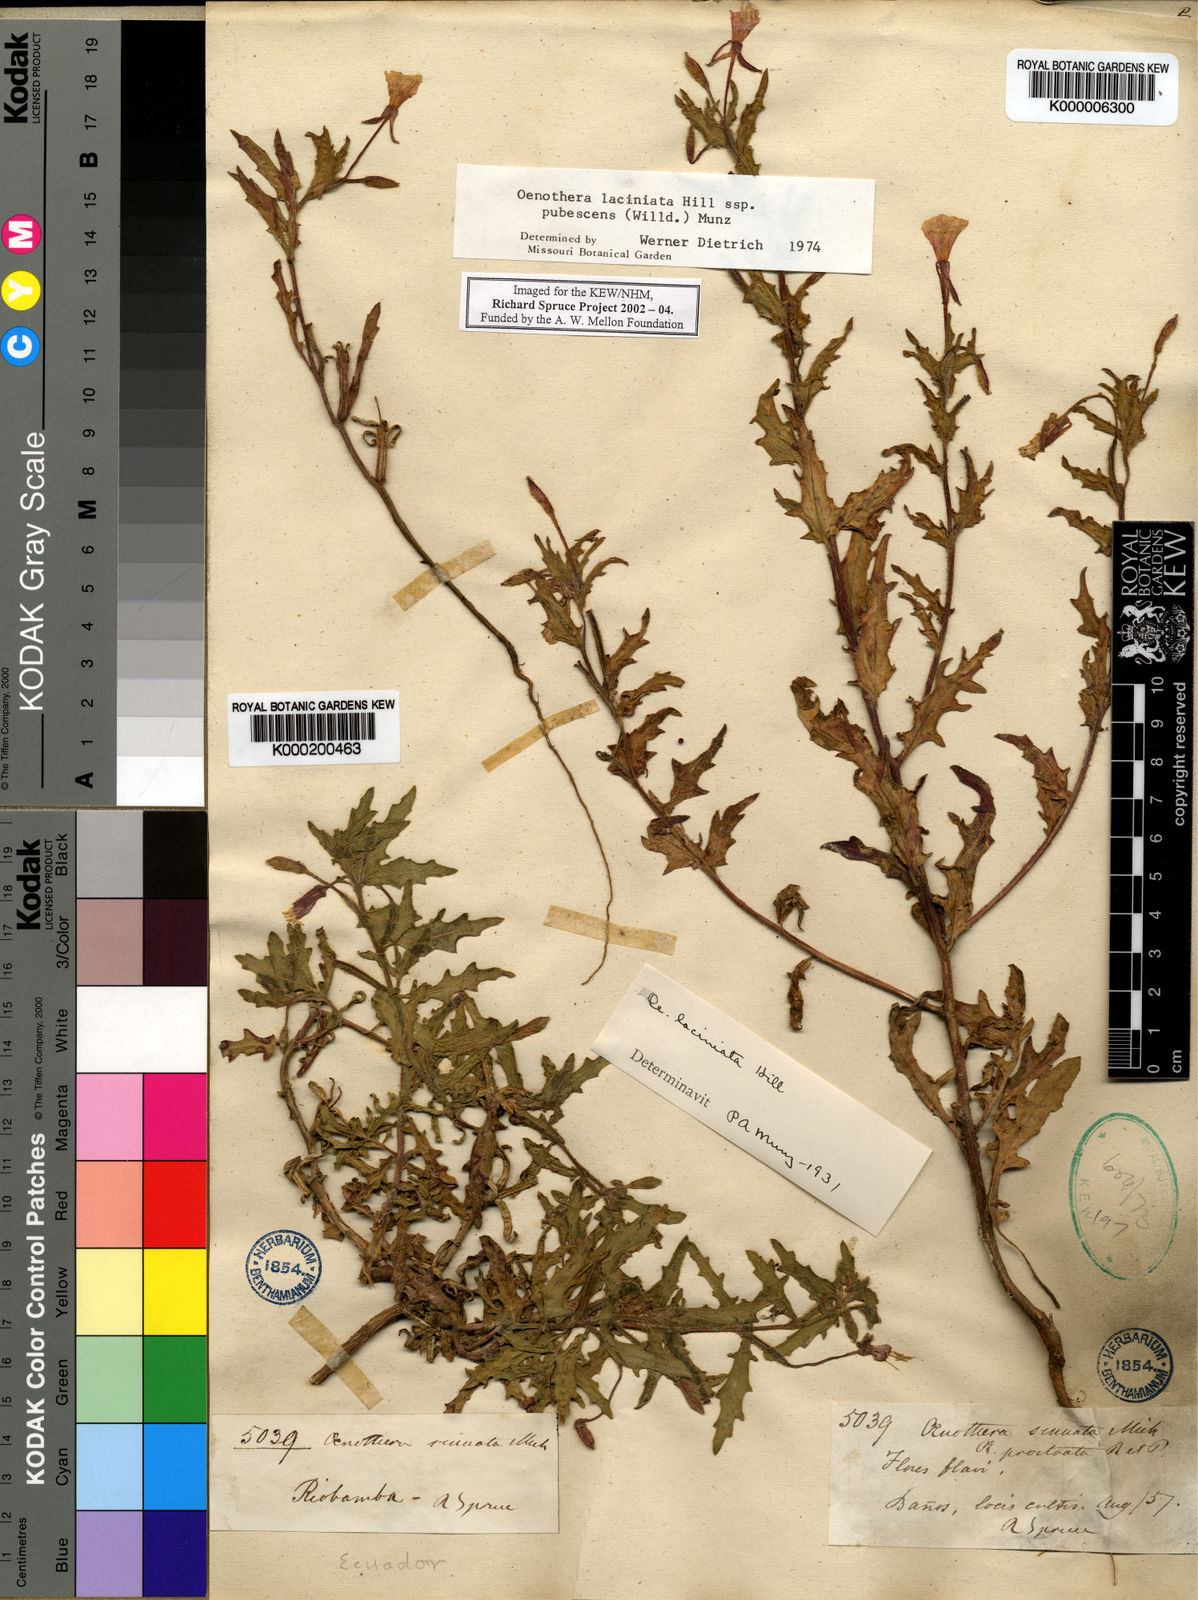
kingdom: Plantae
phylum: Tracheophyta
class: Magnoliopsida
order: Myrtales
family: Onagraceae
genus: Oenothera
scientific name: Oenothera laciniata
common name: Cut-leaved evening-primrose
